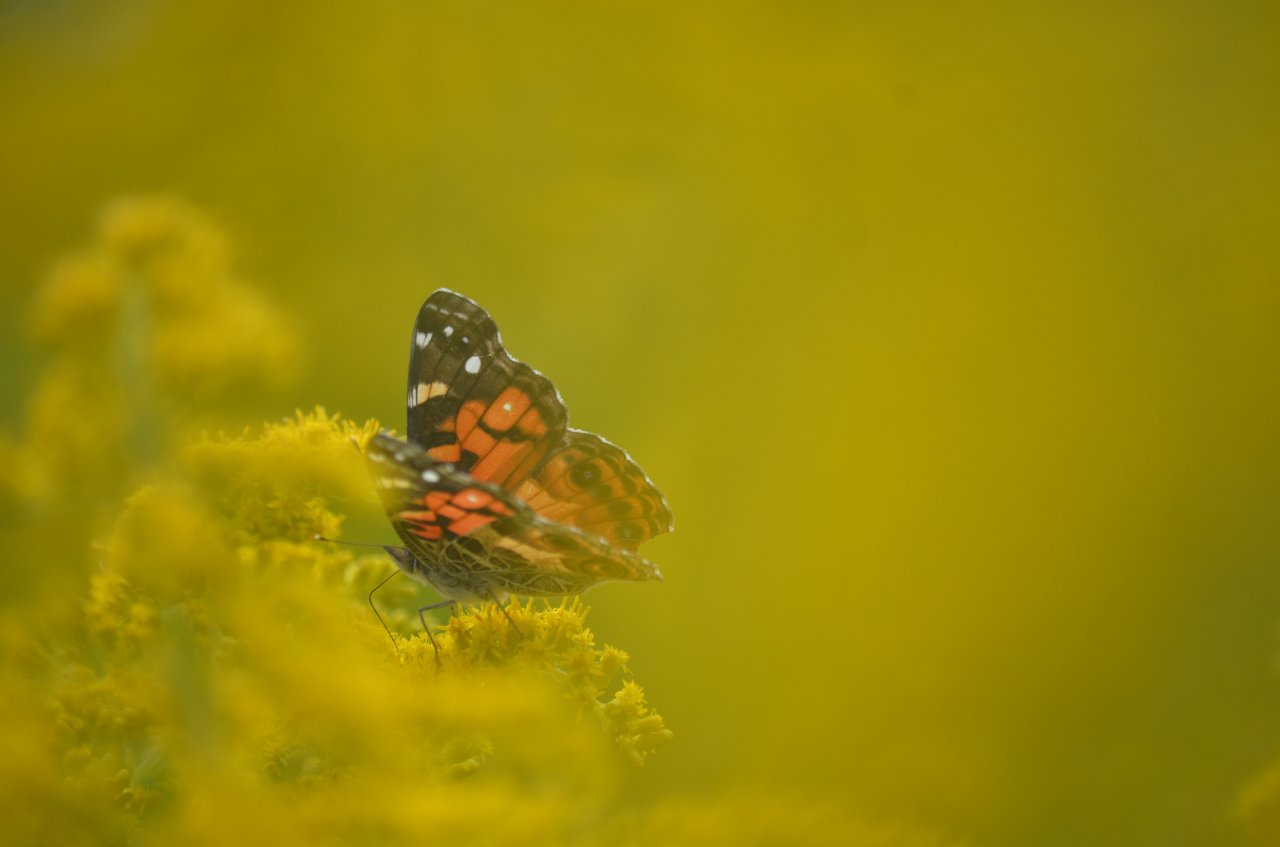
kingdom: Animalia
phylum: Arthropoda
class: Insecta
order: Lepidoptera
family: Nymphalidae
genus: Vanessa
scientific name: Vanessa virginiensis
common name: American Lady
